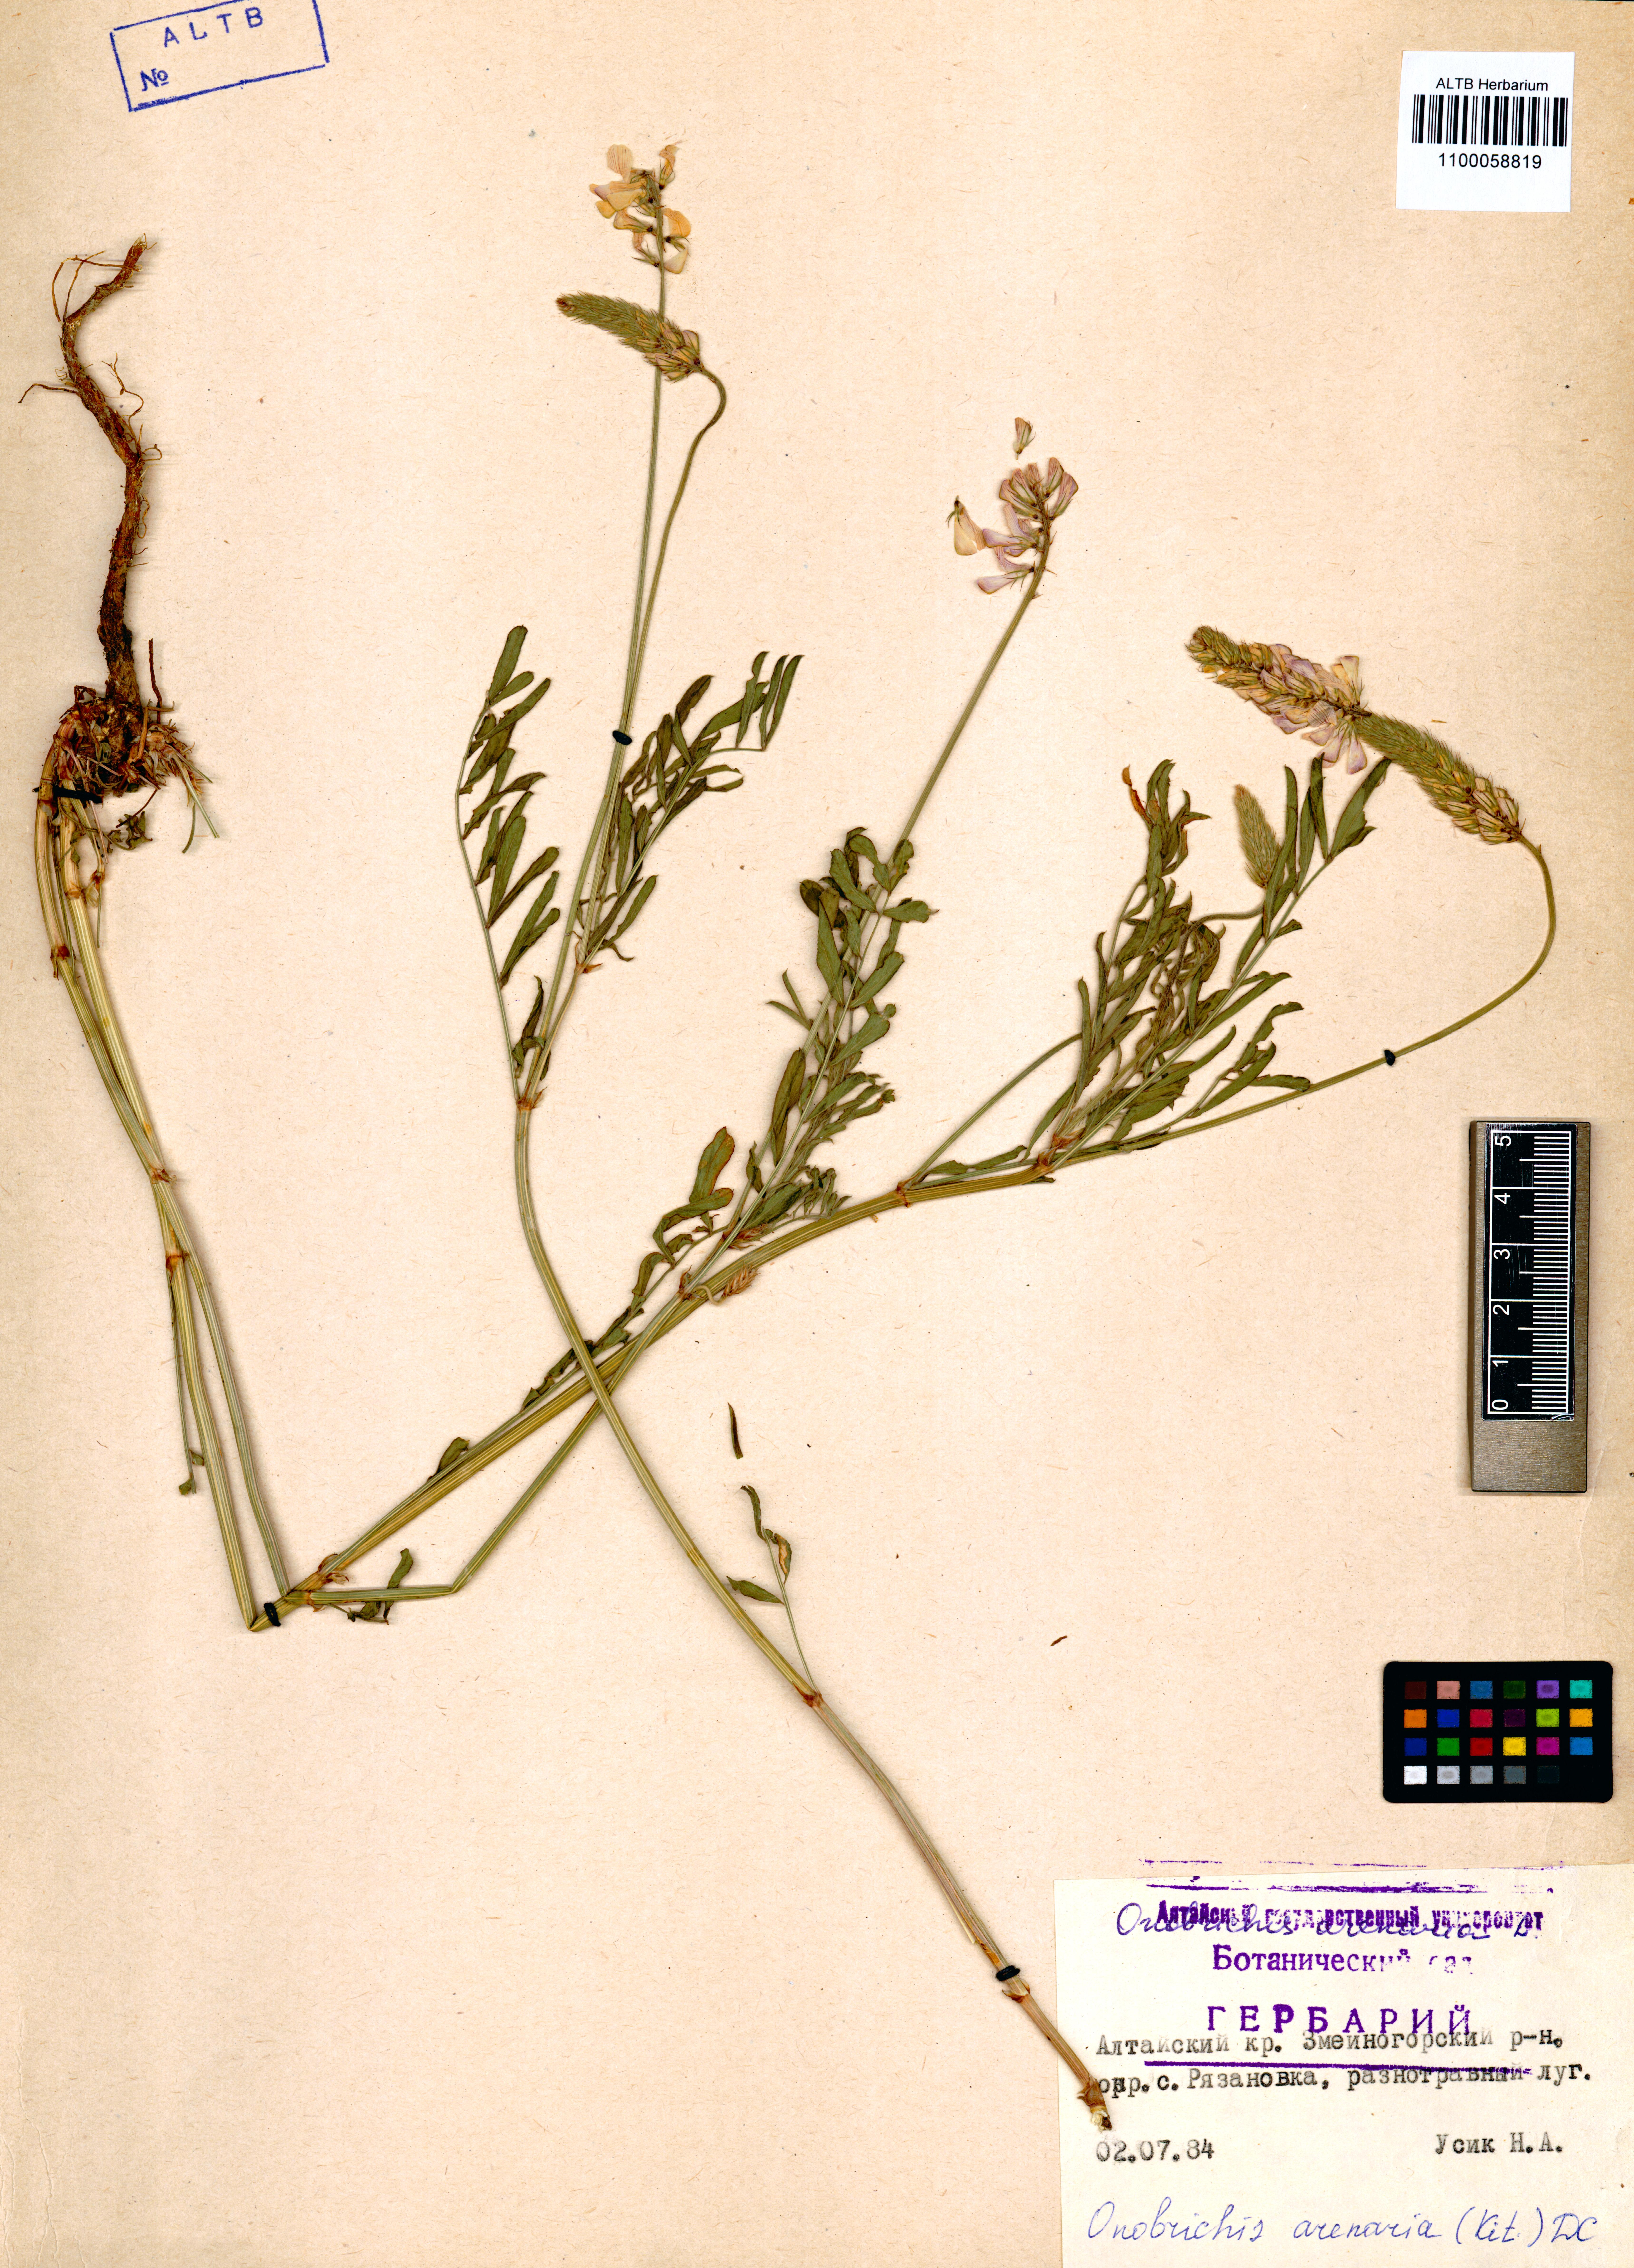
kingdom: Plantae
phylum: Tracheophyta
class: Magnoliopsida
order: Fabales
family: Fabaceae
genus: Onobrychis
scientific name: Onobrychis arenaria
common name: Sand esparcet
